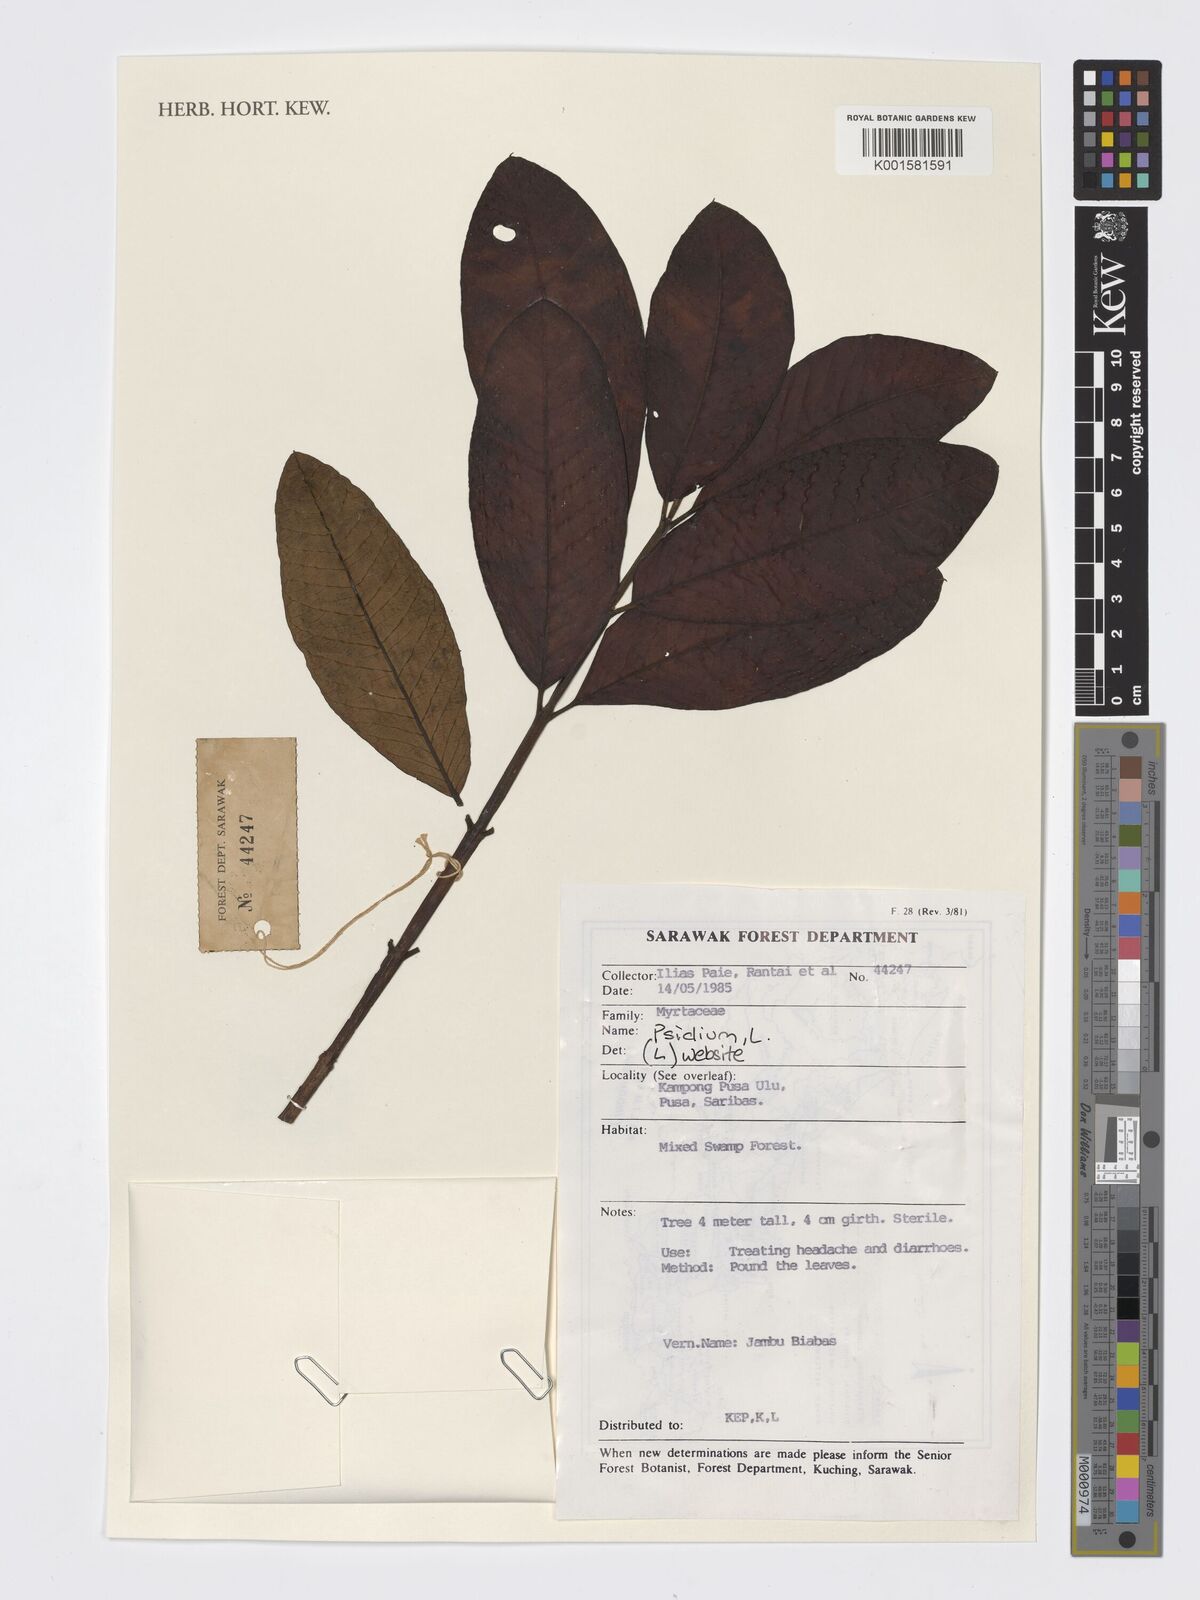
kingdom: Plantae
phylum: Tracheophyta
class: Magnoliopsida
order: Myrtales
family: Myrtaceae
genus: Psidium
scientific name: Psidium
